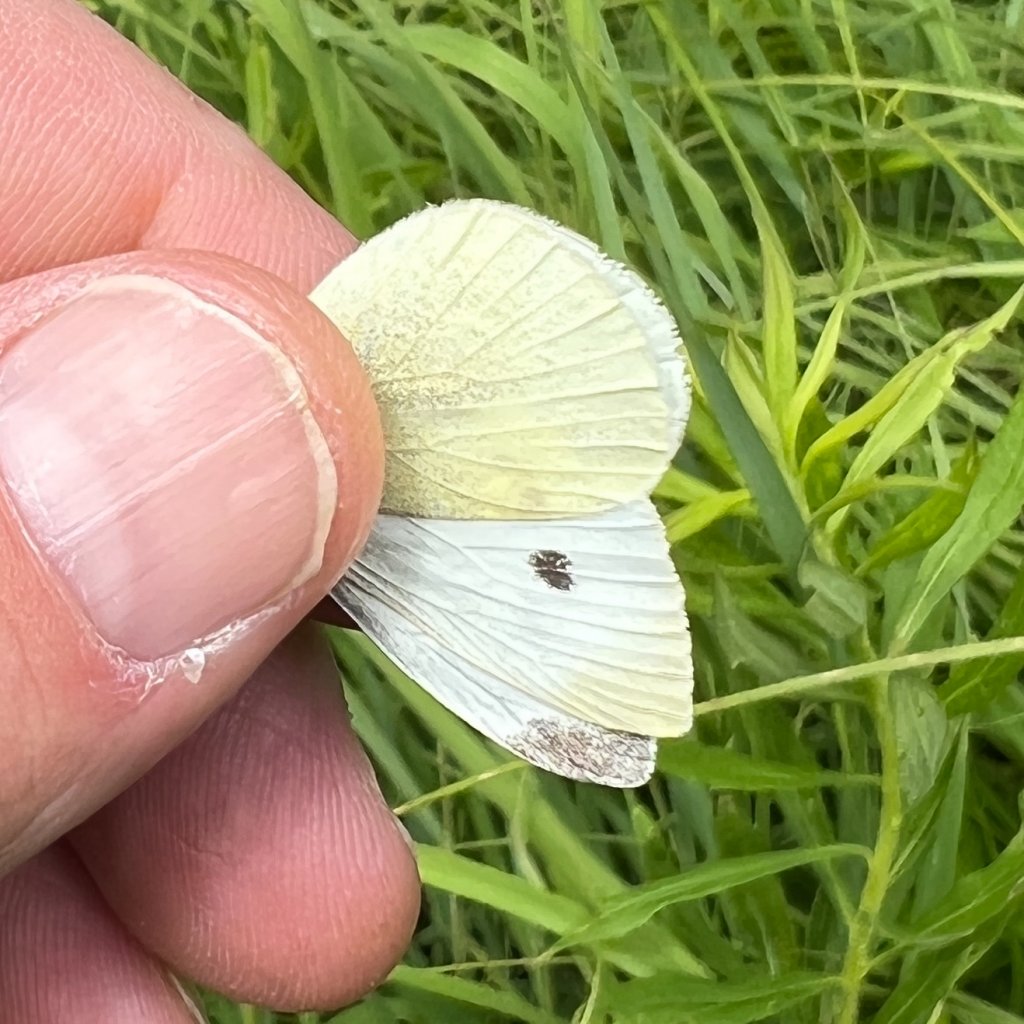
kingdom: Animalia
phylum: Arthropoda
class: Insecta
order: Lepidoptera
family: Pieridae
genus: Pieris
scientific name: Pieris rapae
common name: Cabbage White
